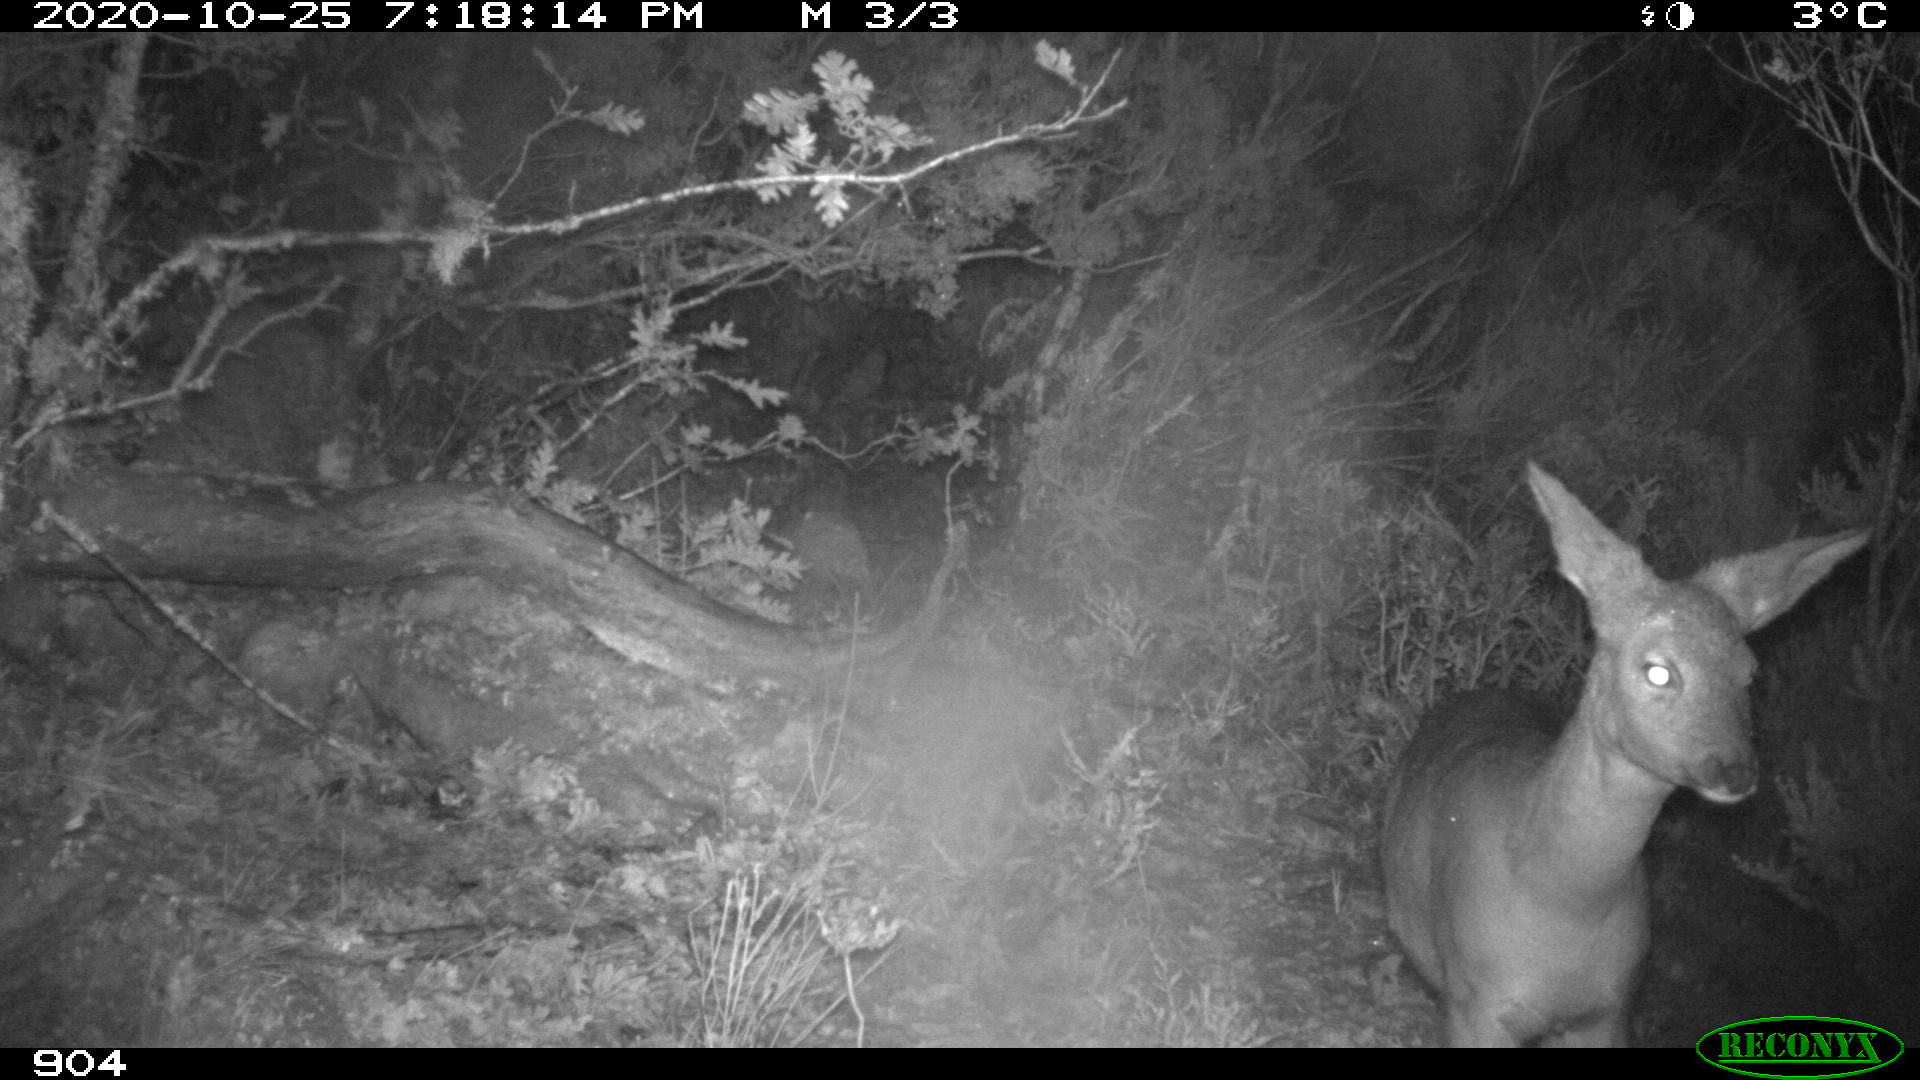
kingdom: Animalia
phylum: Chordata
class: Mammalia
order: Artiodactyla
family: Cervidae
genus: Capreolus
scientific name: Capreolus capreolus
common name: Western roe deer
